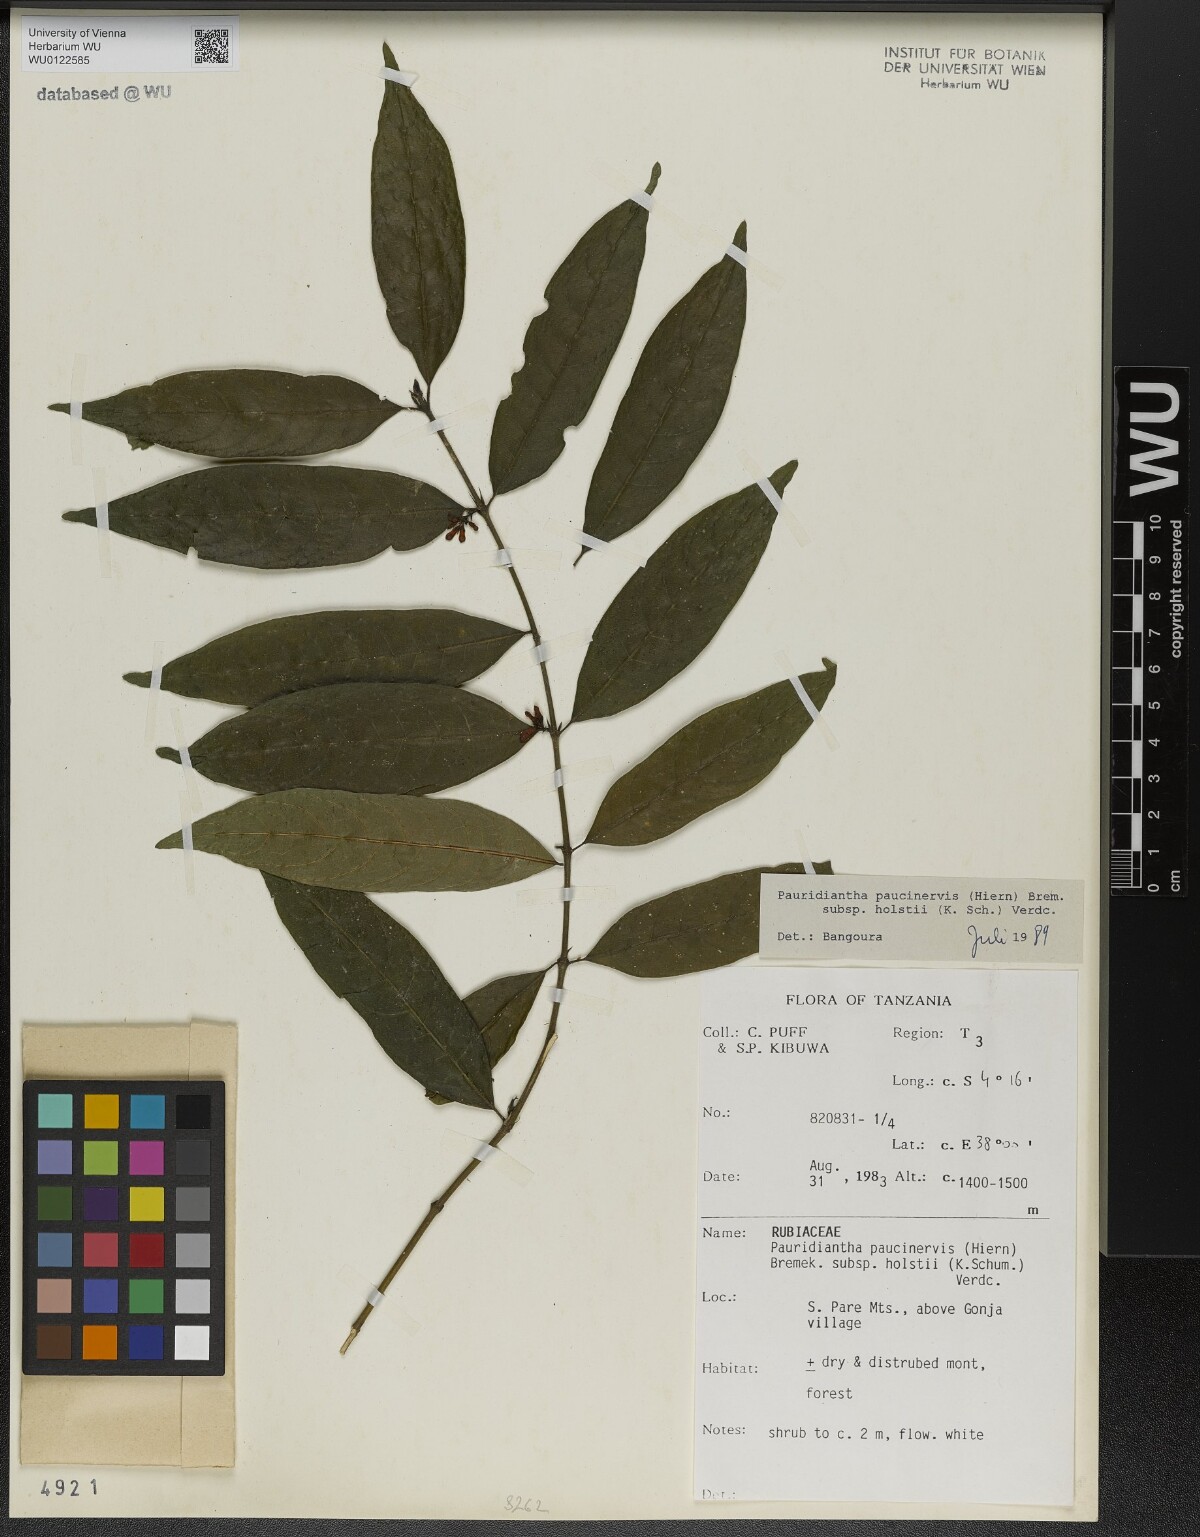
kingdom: Plantae
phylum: Tracheophyta
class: Magnoliopsida
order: Gentianales
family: Rubiaceae
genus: Pauridiantha
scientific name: Pauridiantha paucinervis
